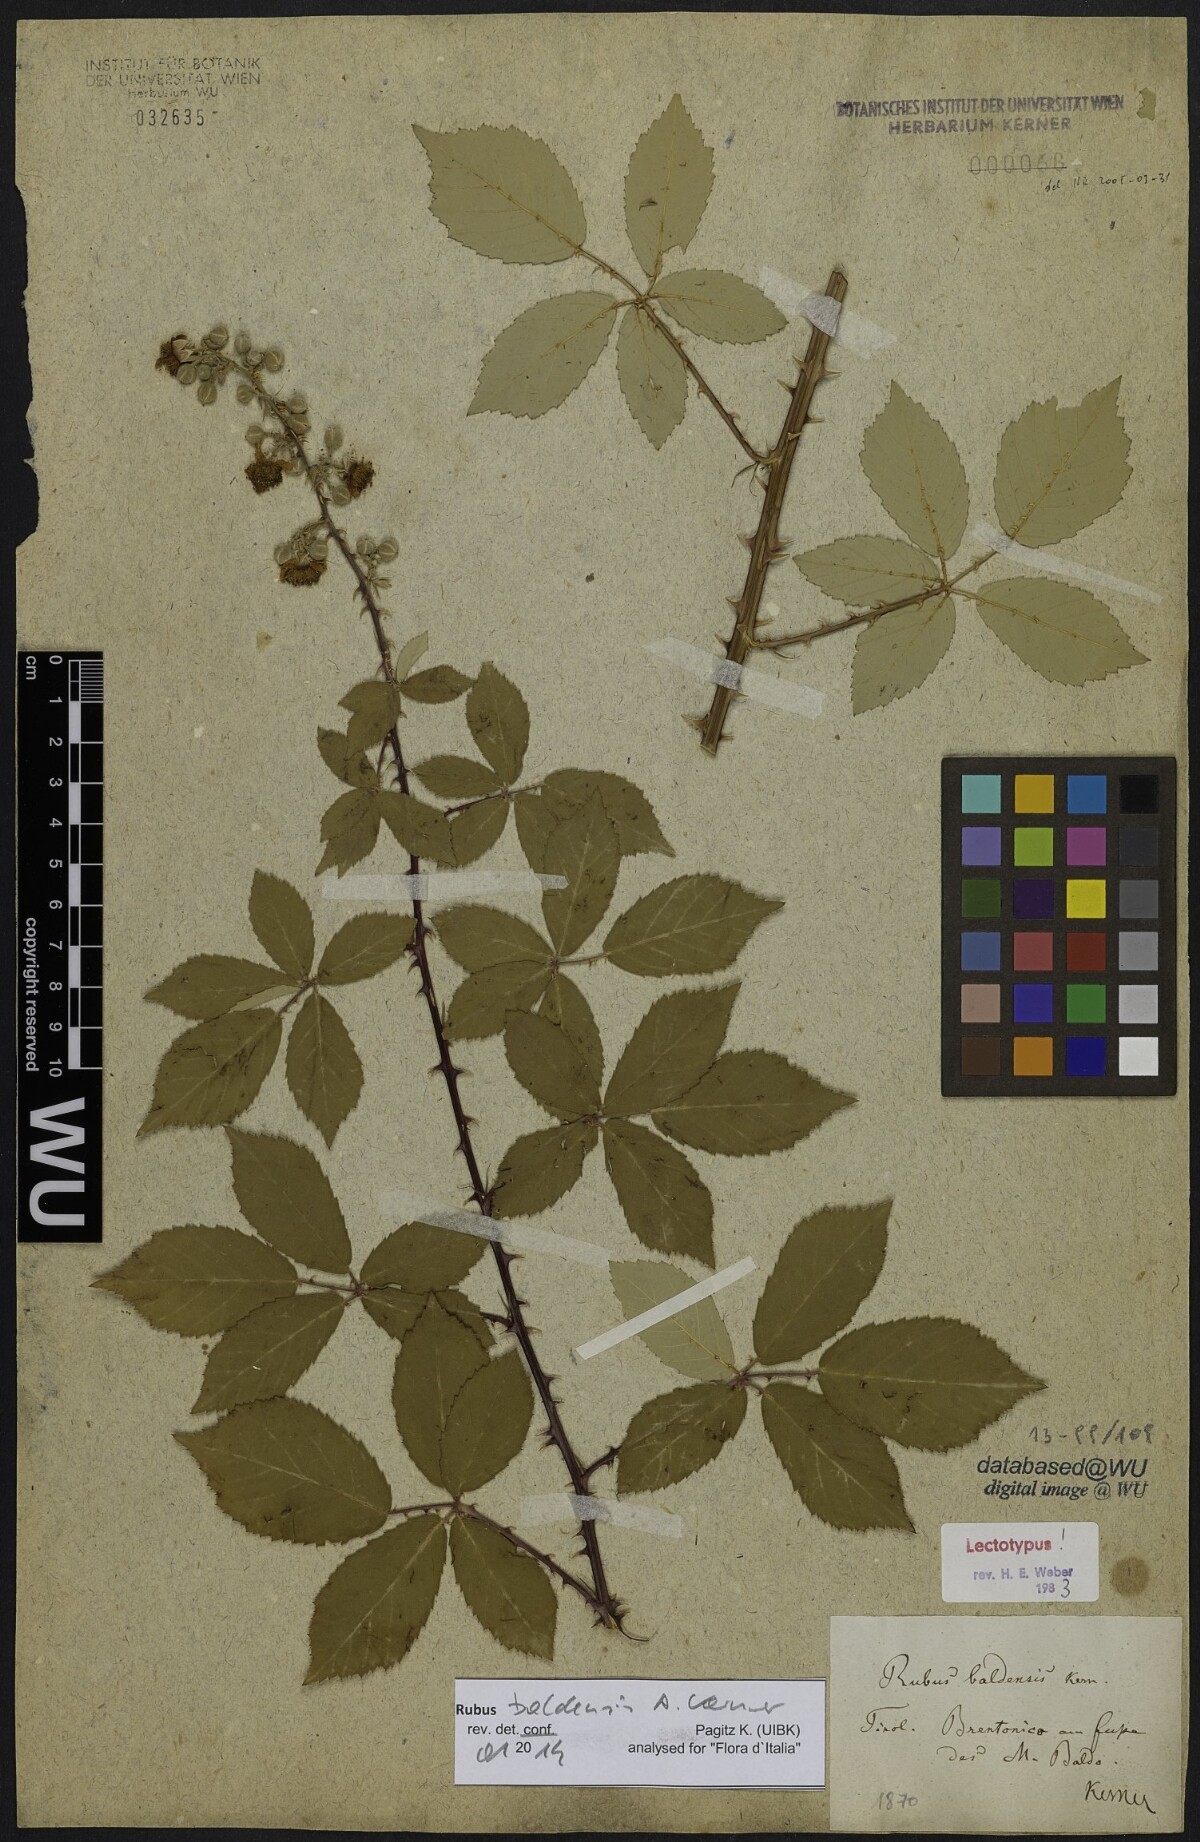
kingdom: Plantae
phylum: Tracheophyta
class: Magnoliopsida
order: Rosales
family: Rosaceae
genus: Rubus
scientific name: Rubus baldensis
